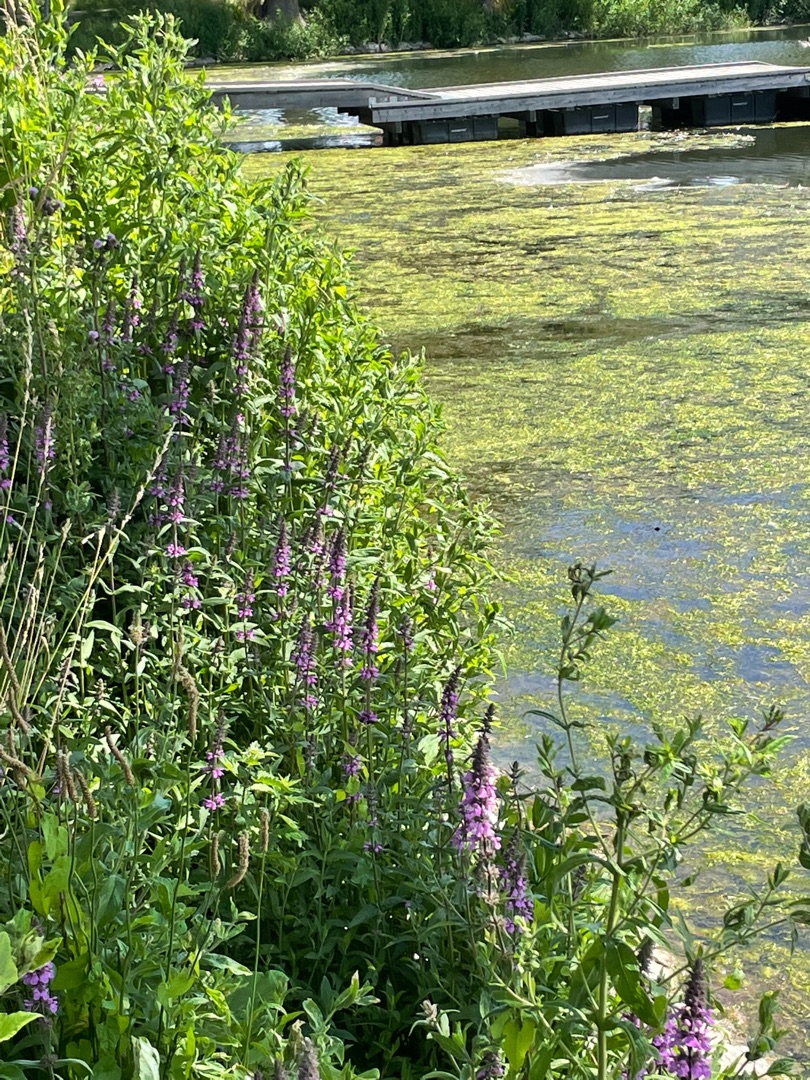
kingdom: Plantae
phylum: Tracheophyta
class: Magnoliopsida
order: Lamiales
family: Lamiaceae
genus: Stachys
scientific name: Stachys palustris
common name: Kær-galtetand
